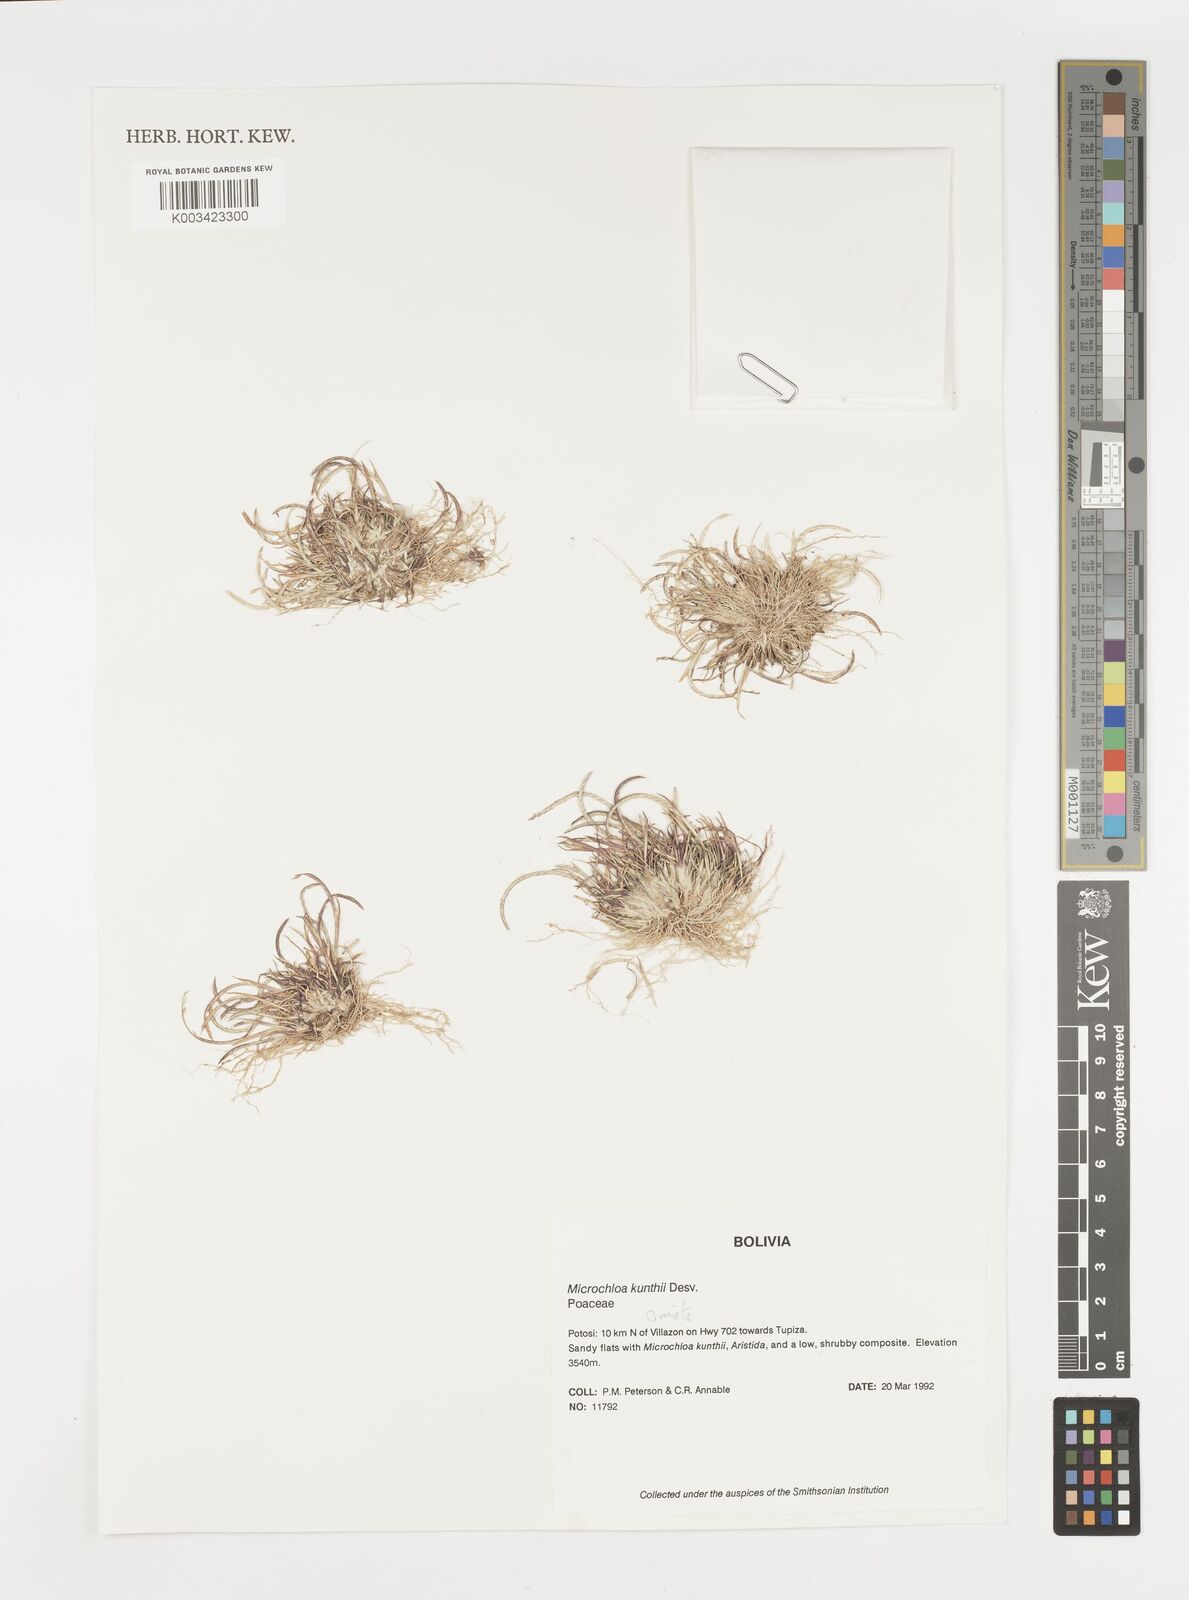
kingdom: Plantae
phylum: Tracheophyta
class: Liliopsida
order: Poales
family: Poaceae
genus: Microchloa
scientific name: Microchloa kunthii
